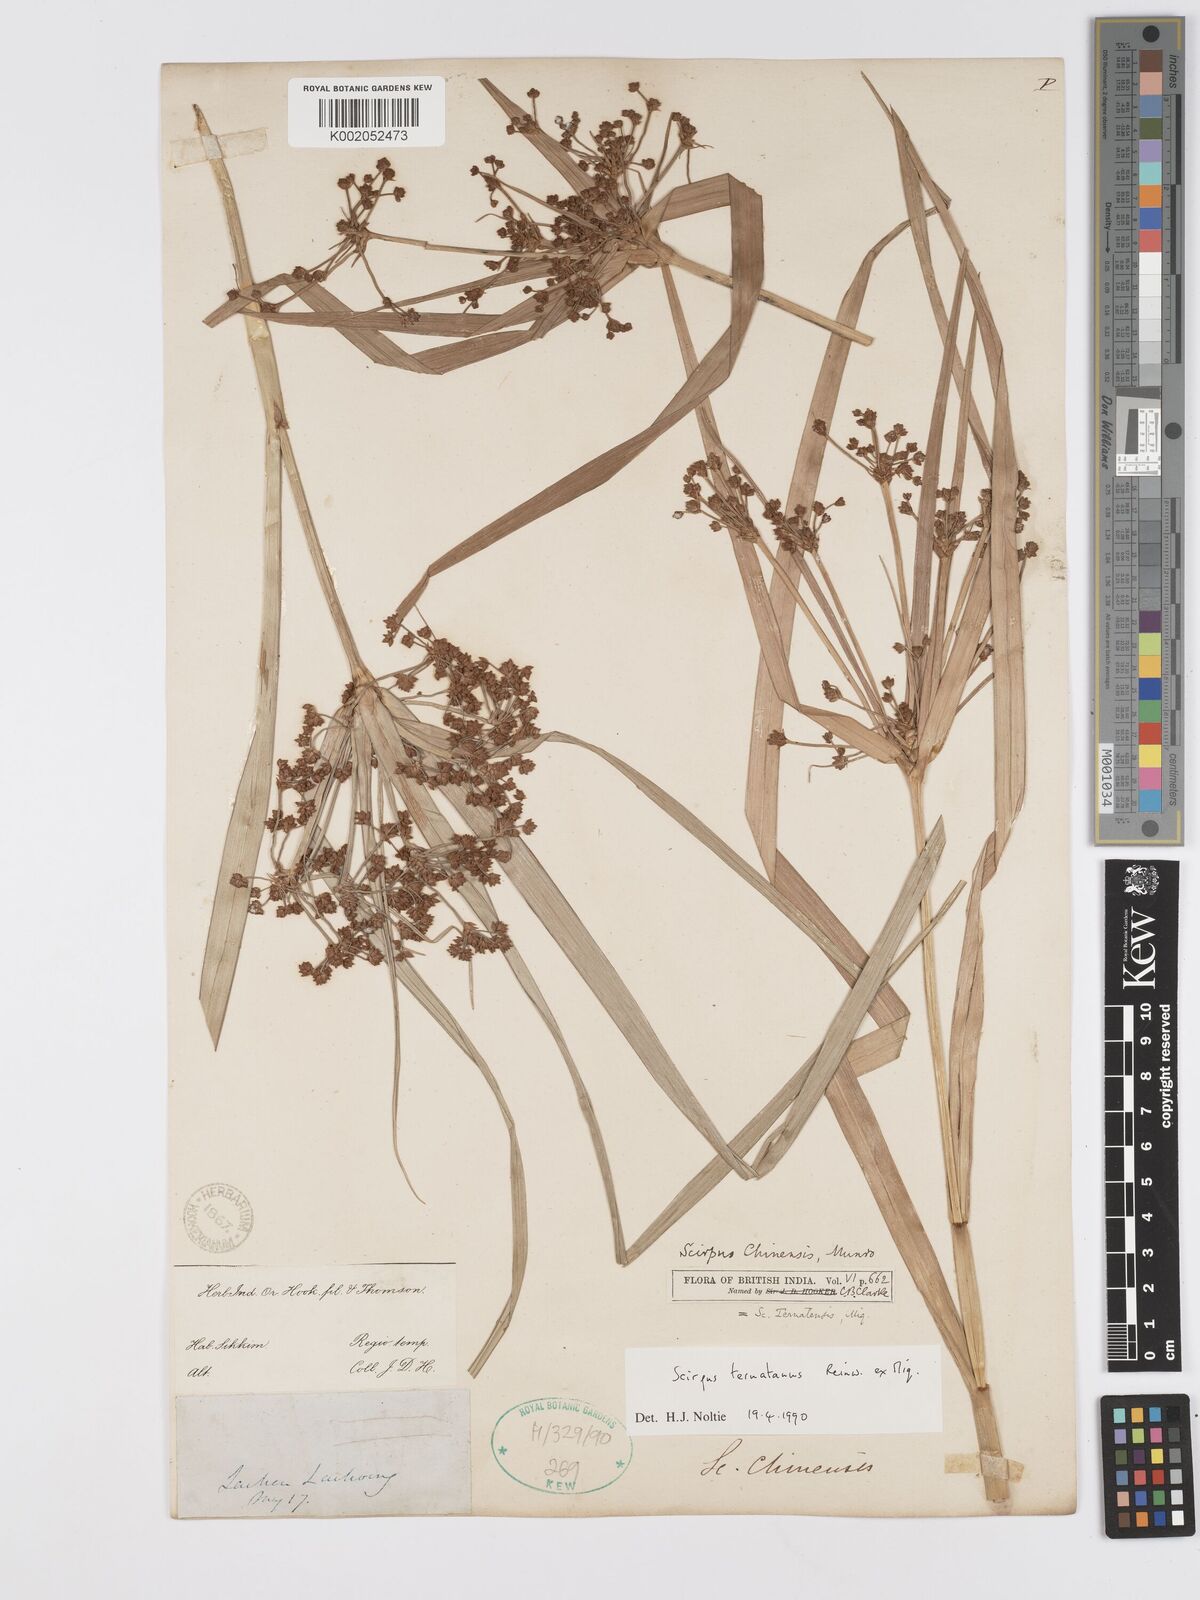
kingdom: Plantae
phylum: Tracheophyta
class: Liliopsida
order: Poales
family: Cyperaceae
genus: Scirpus
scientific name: Scirpus ternatanus
